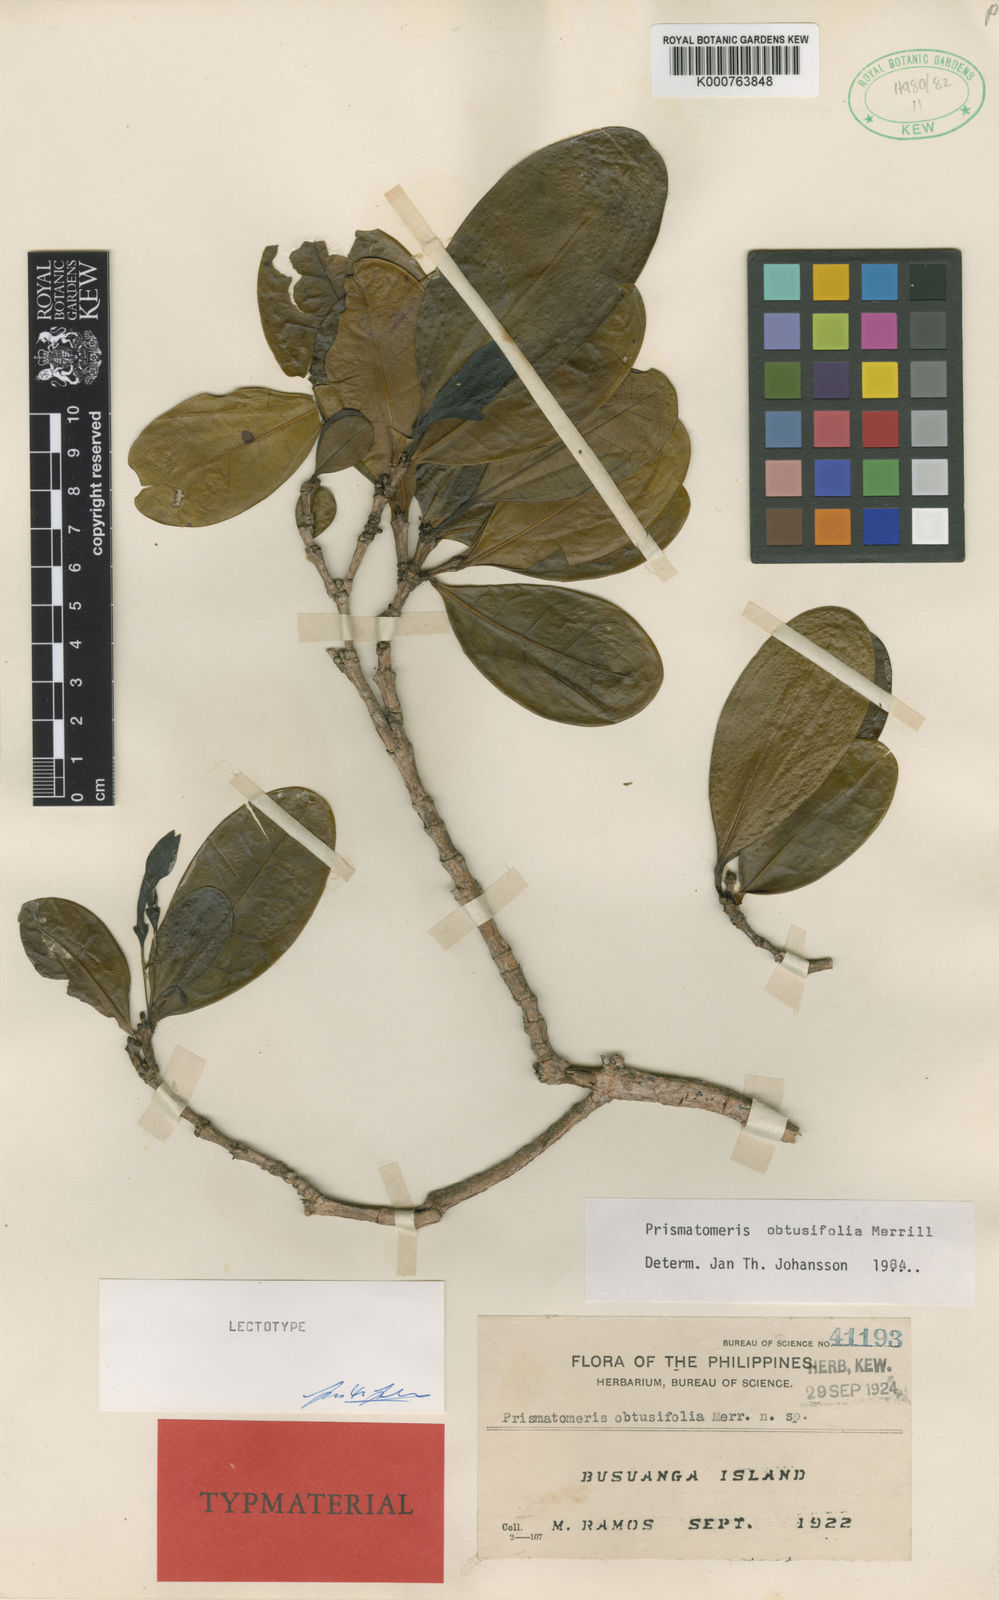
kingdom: Plantae
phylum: Tracheophyta
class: Magnoliopsida
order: Gentianales
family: Rubiaceae
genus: Prismatomeris
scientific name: Prismatomeris obtusifolia
